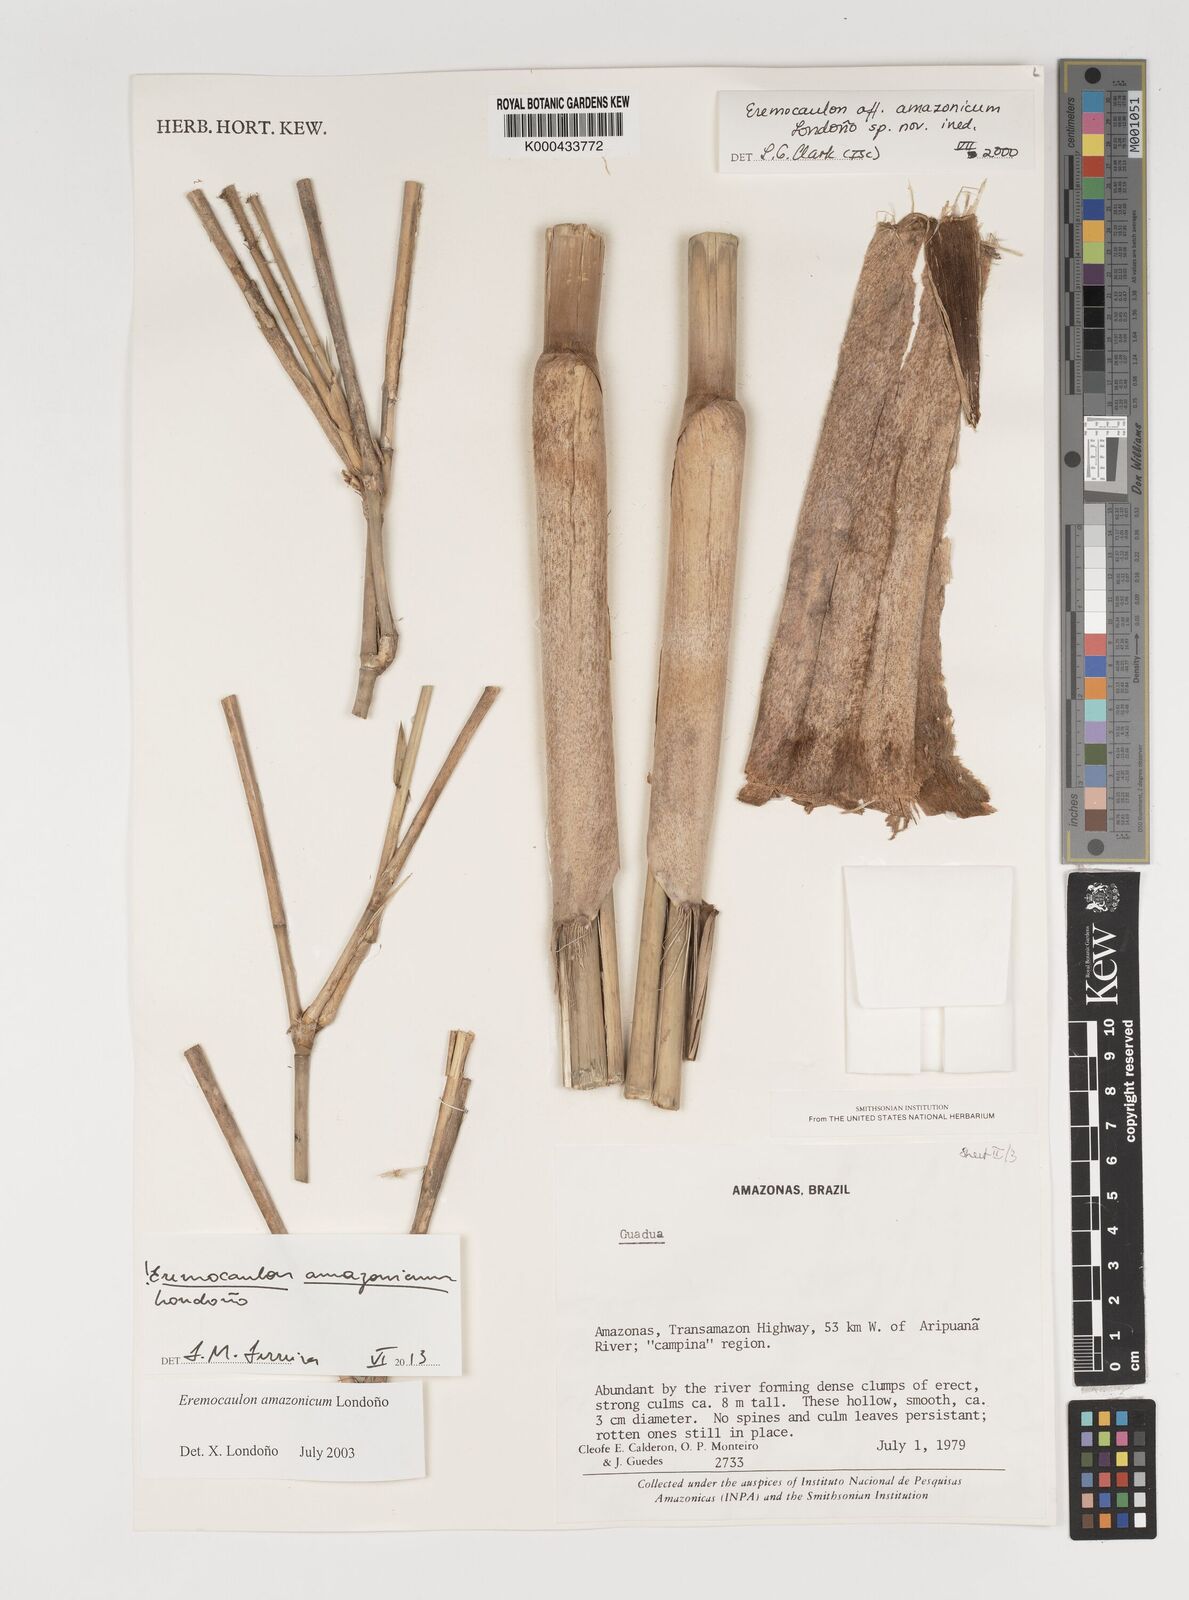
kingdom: Plantae
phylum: Tracheophyta
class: Liliopsida
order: Poales
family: Poaceae
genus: Eremocaulon
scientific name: Eremocaulon
